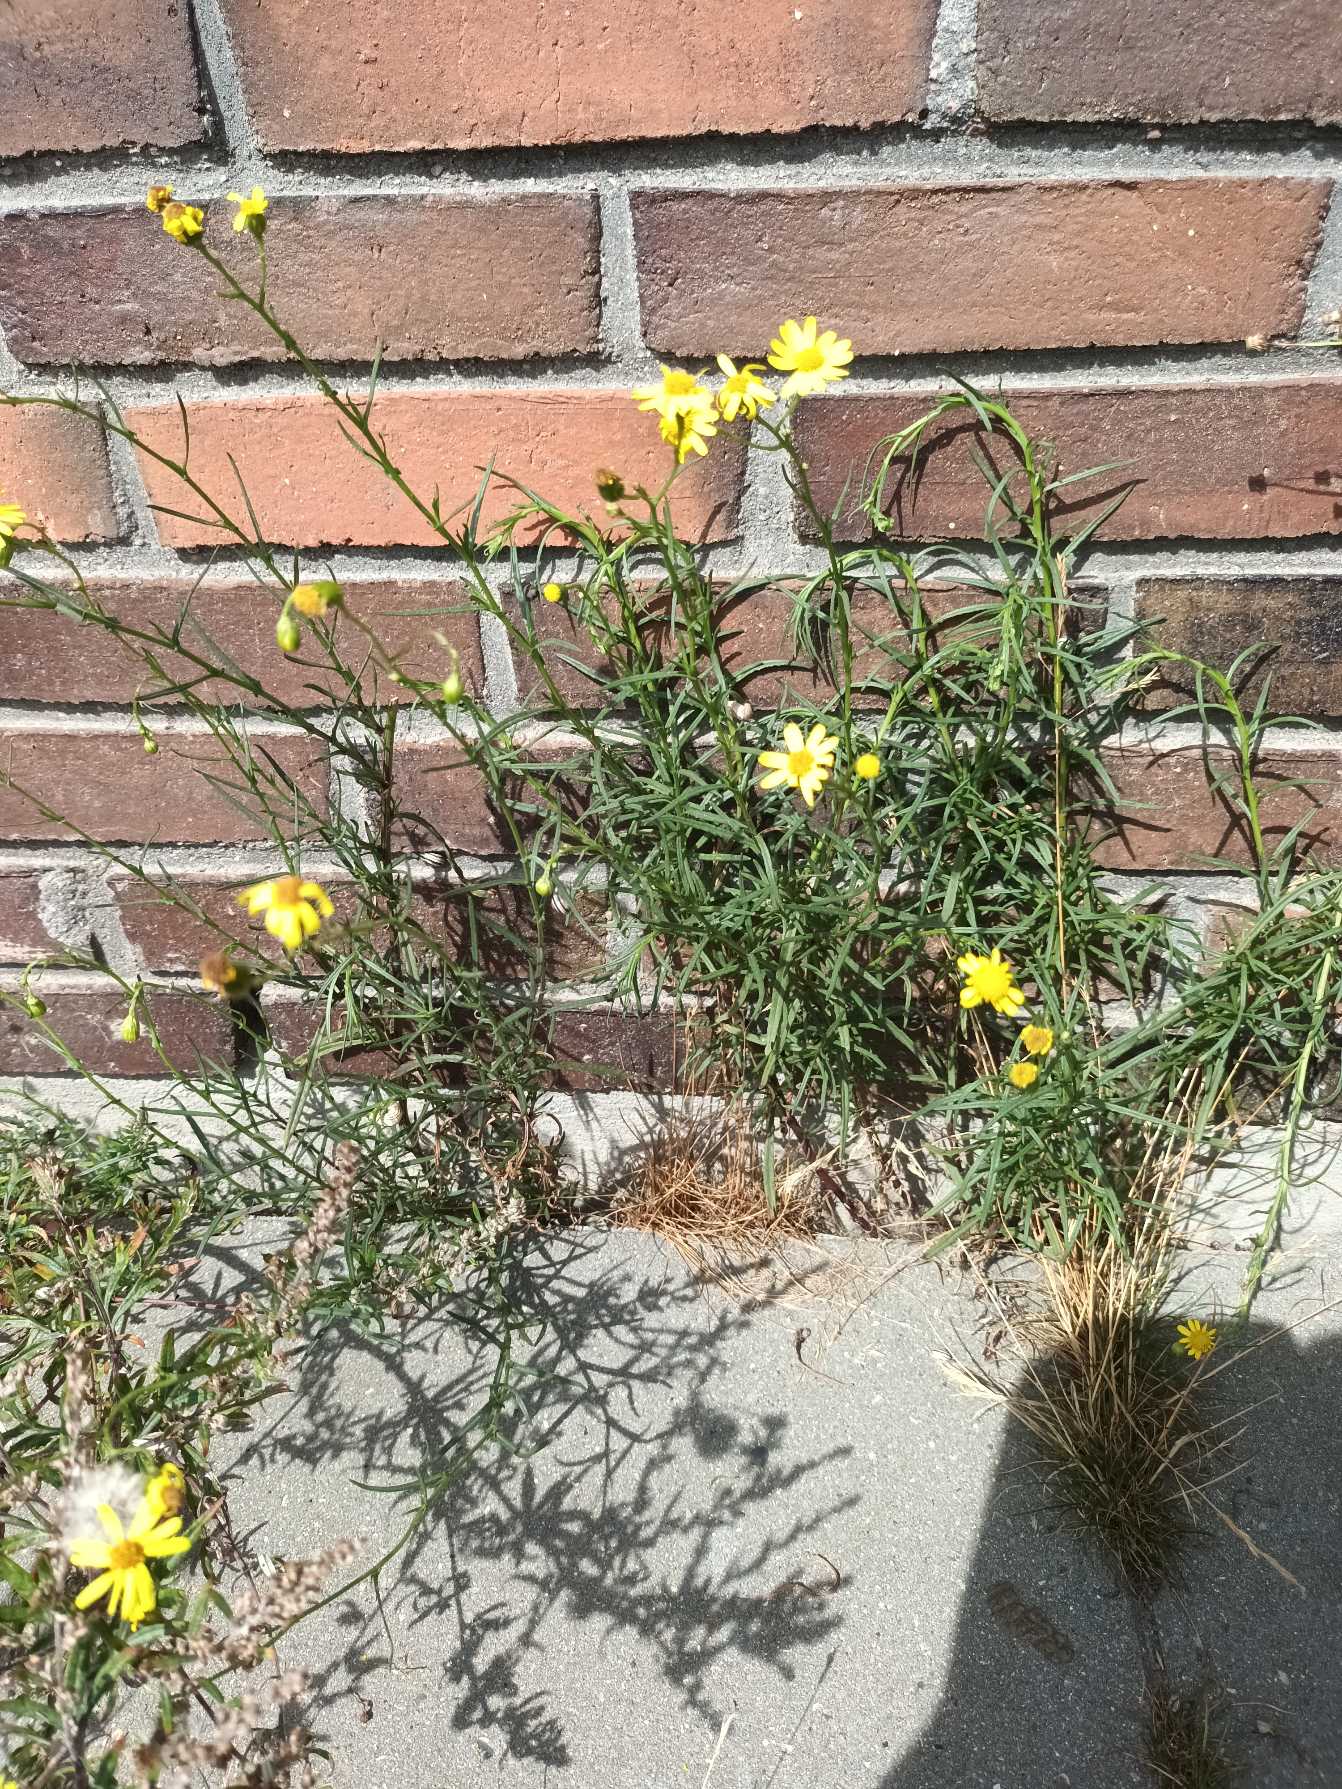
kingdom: Plantae
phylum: Tracheophyta
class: Magnoliopsida
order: Asterales
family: Asteraceae
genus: Senecio
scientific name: Senecio inaequidens
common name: Smalbladet brandbæger
